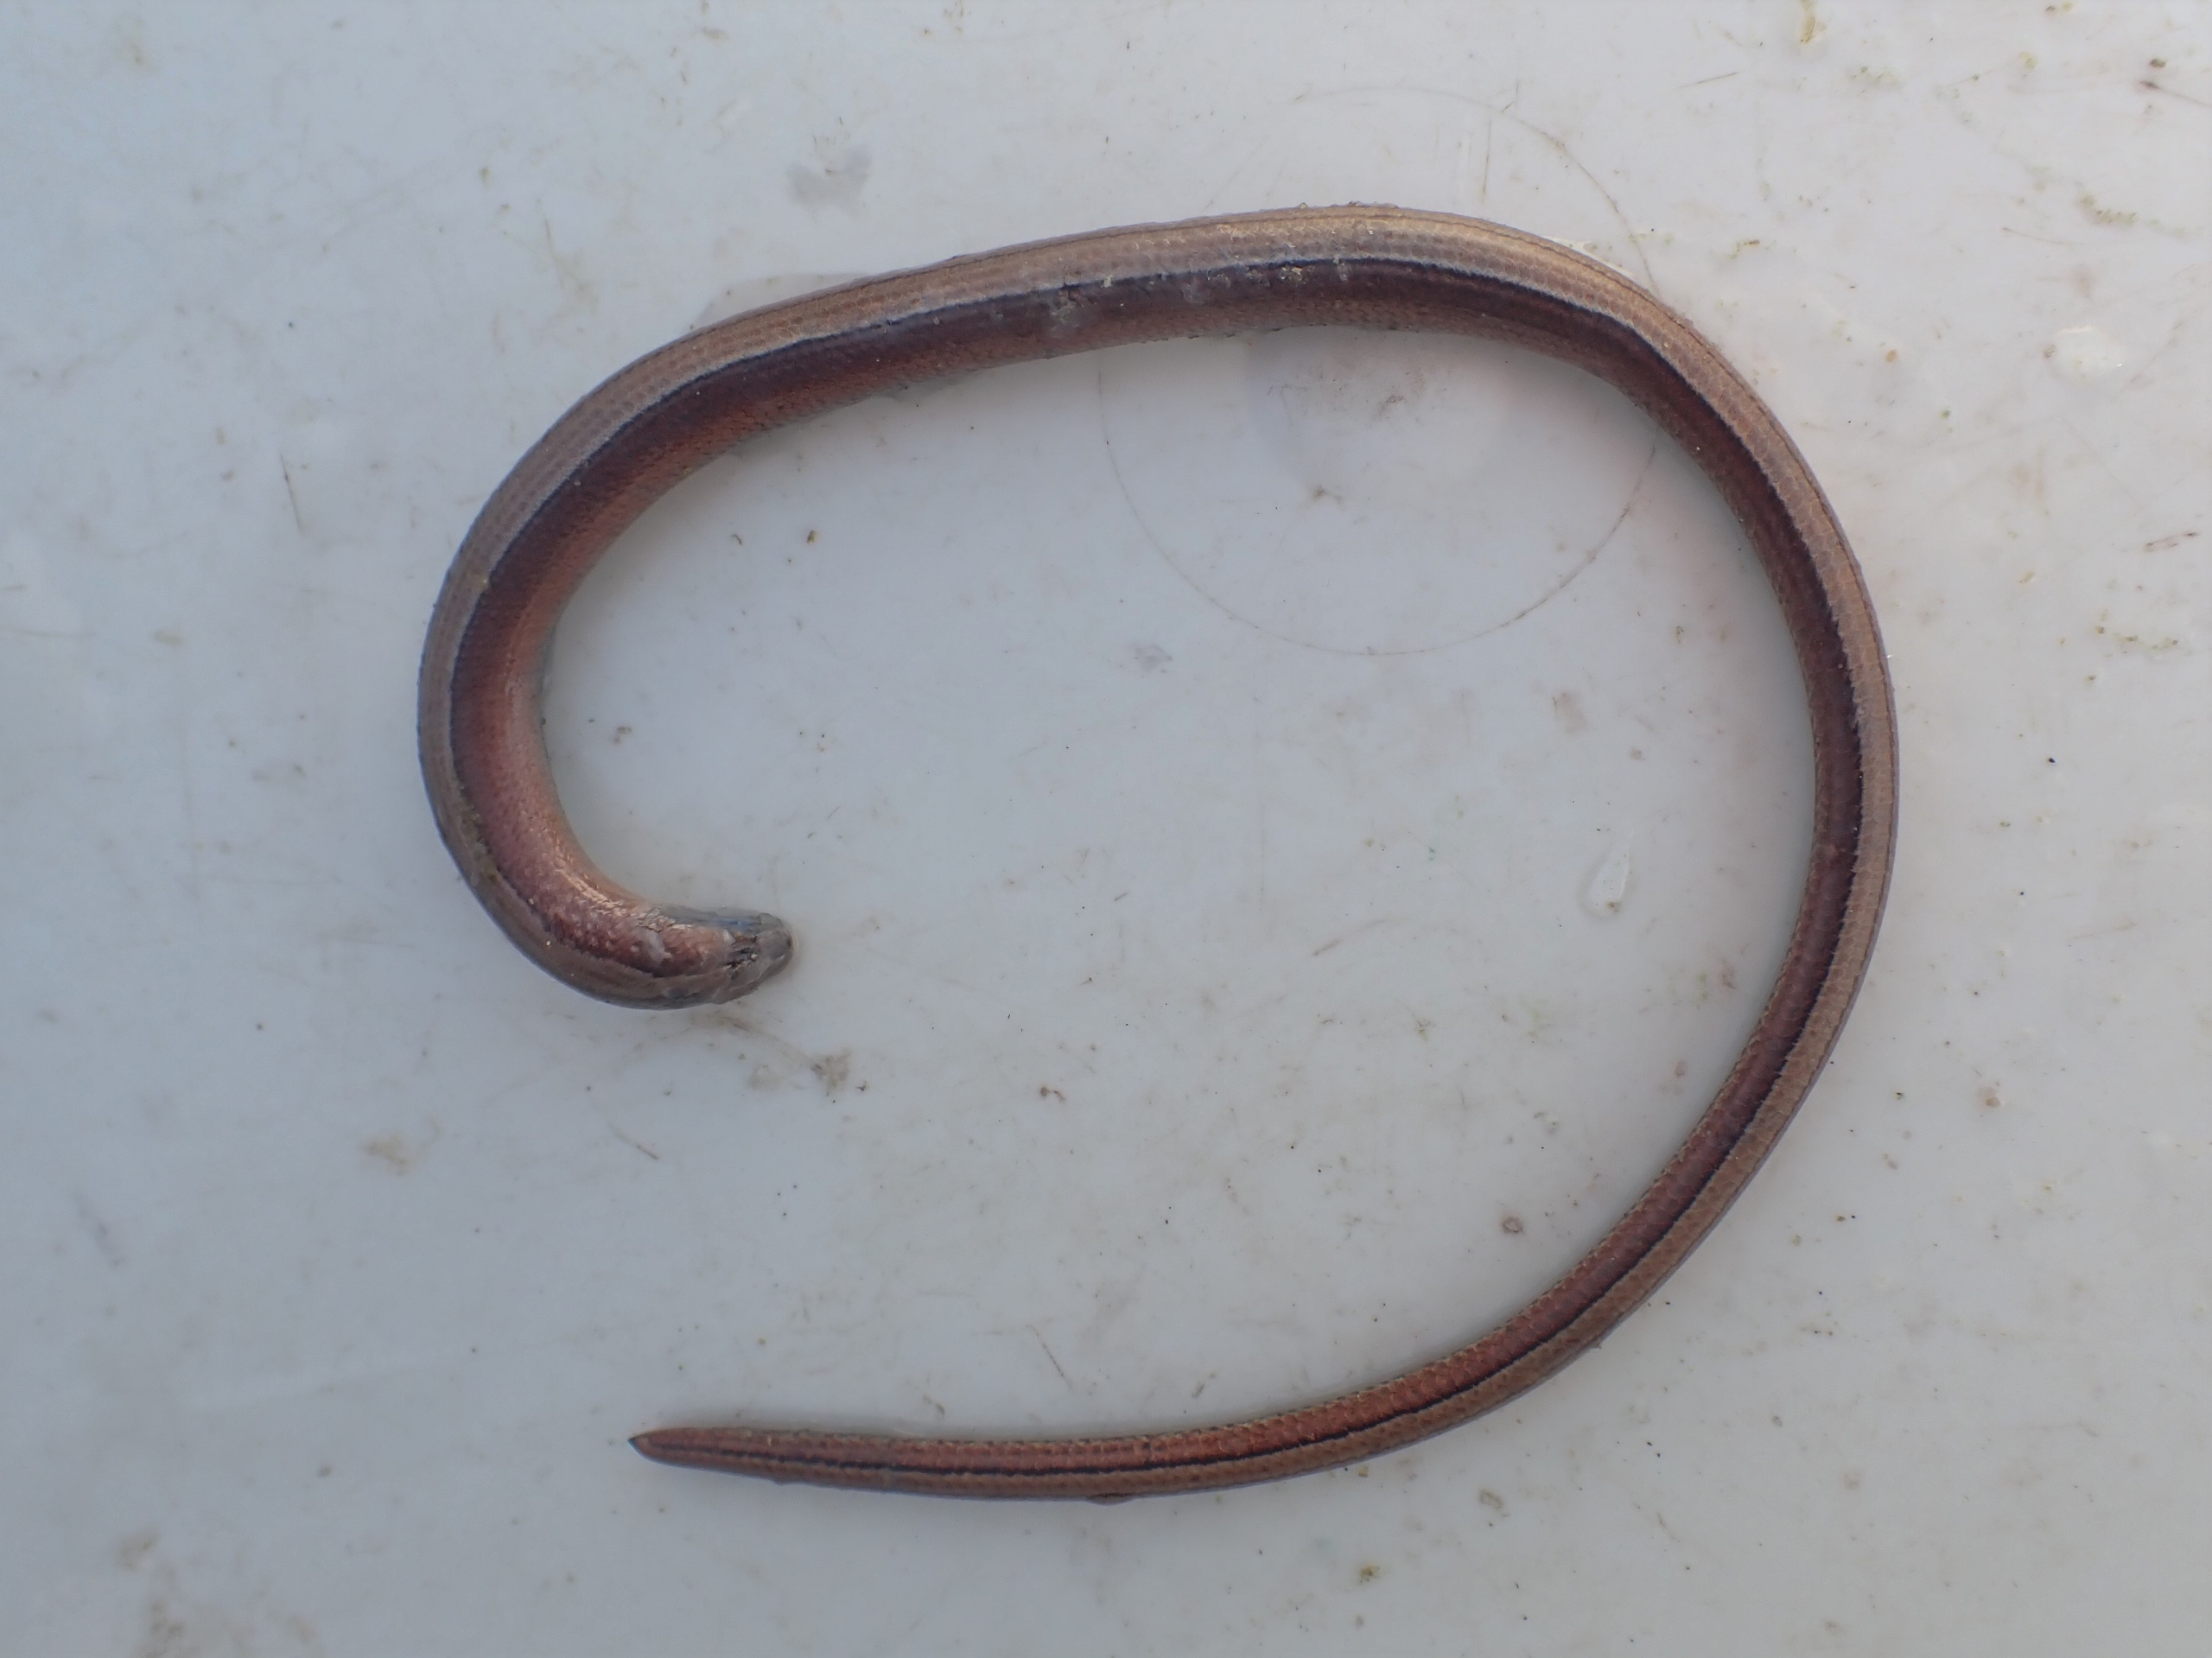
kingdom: Animalia
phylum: Chordata
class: Squamata
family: Anguidae
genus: Anguis
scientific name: Anguis fragilis
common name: Stålorm
